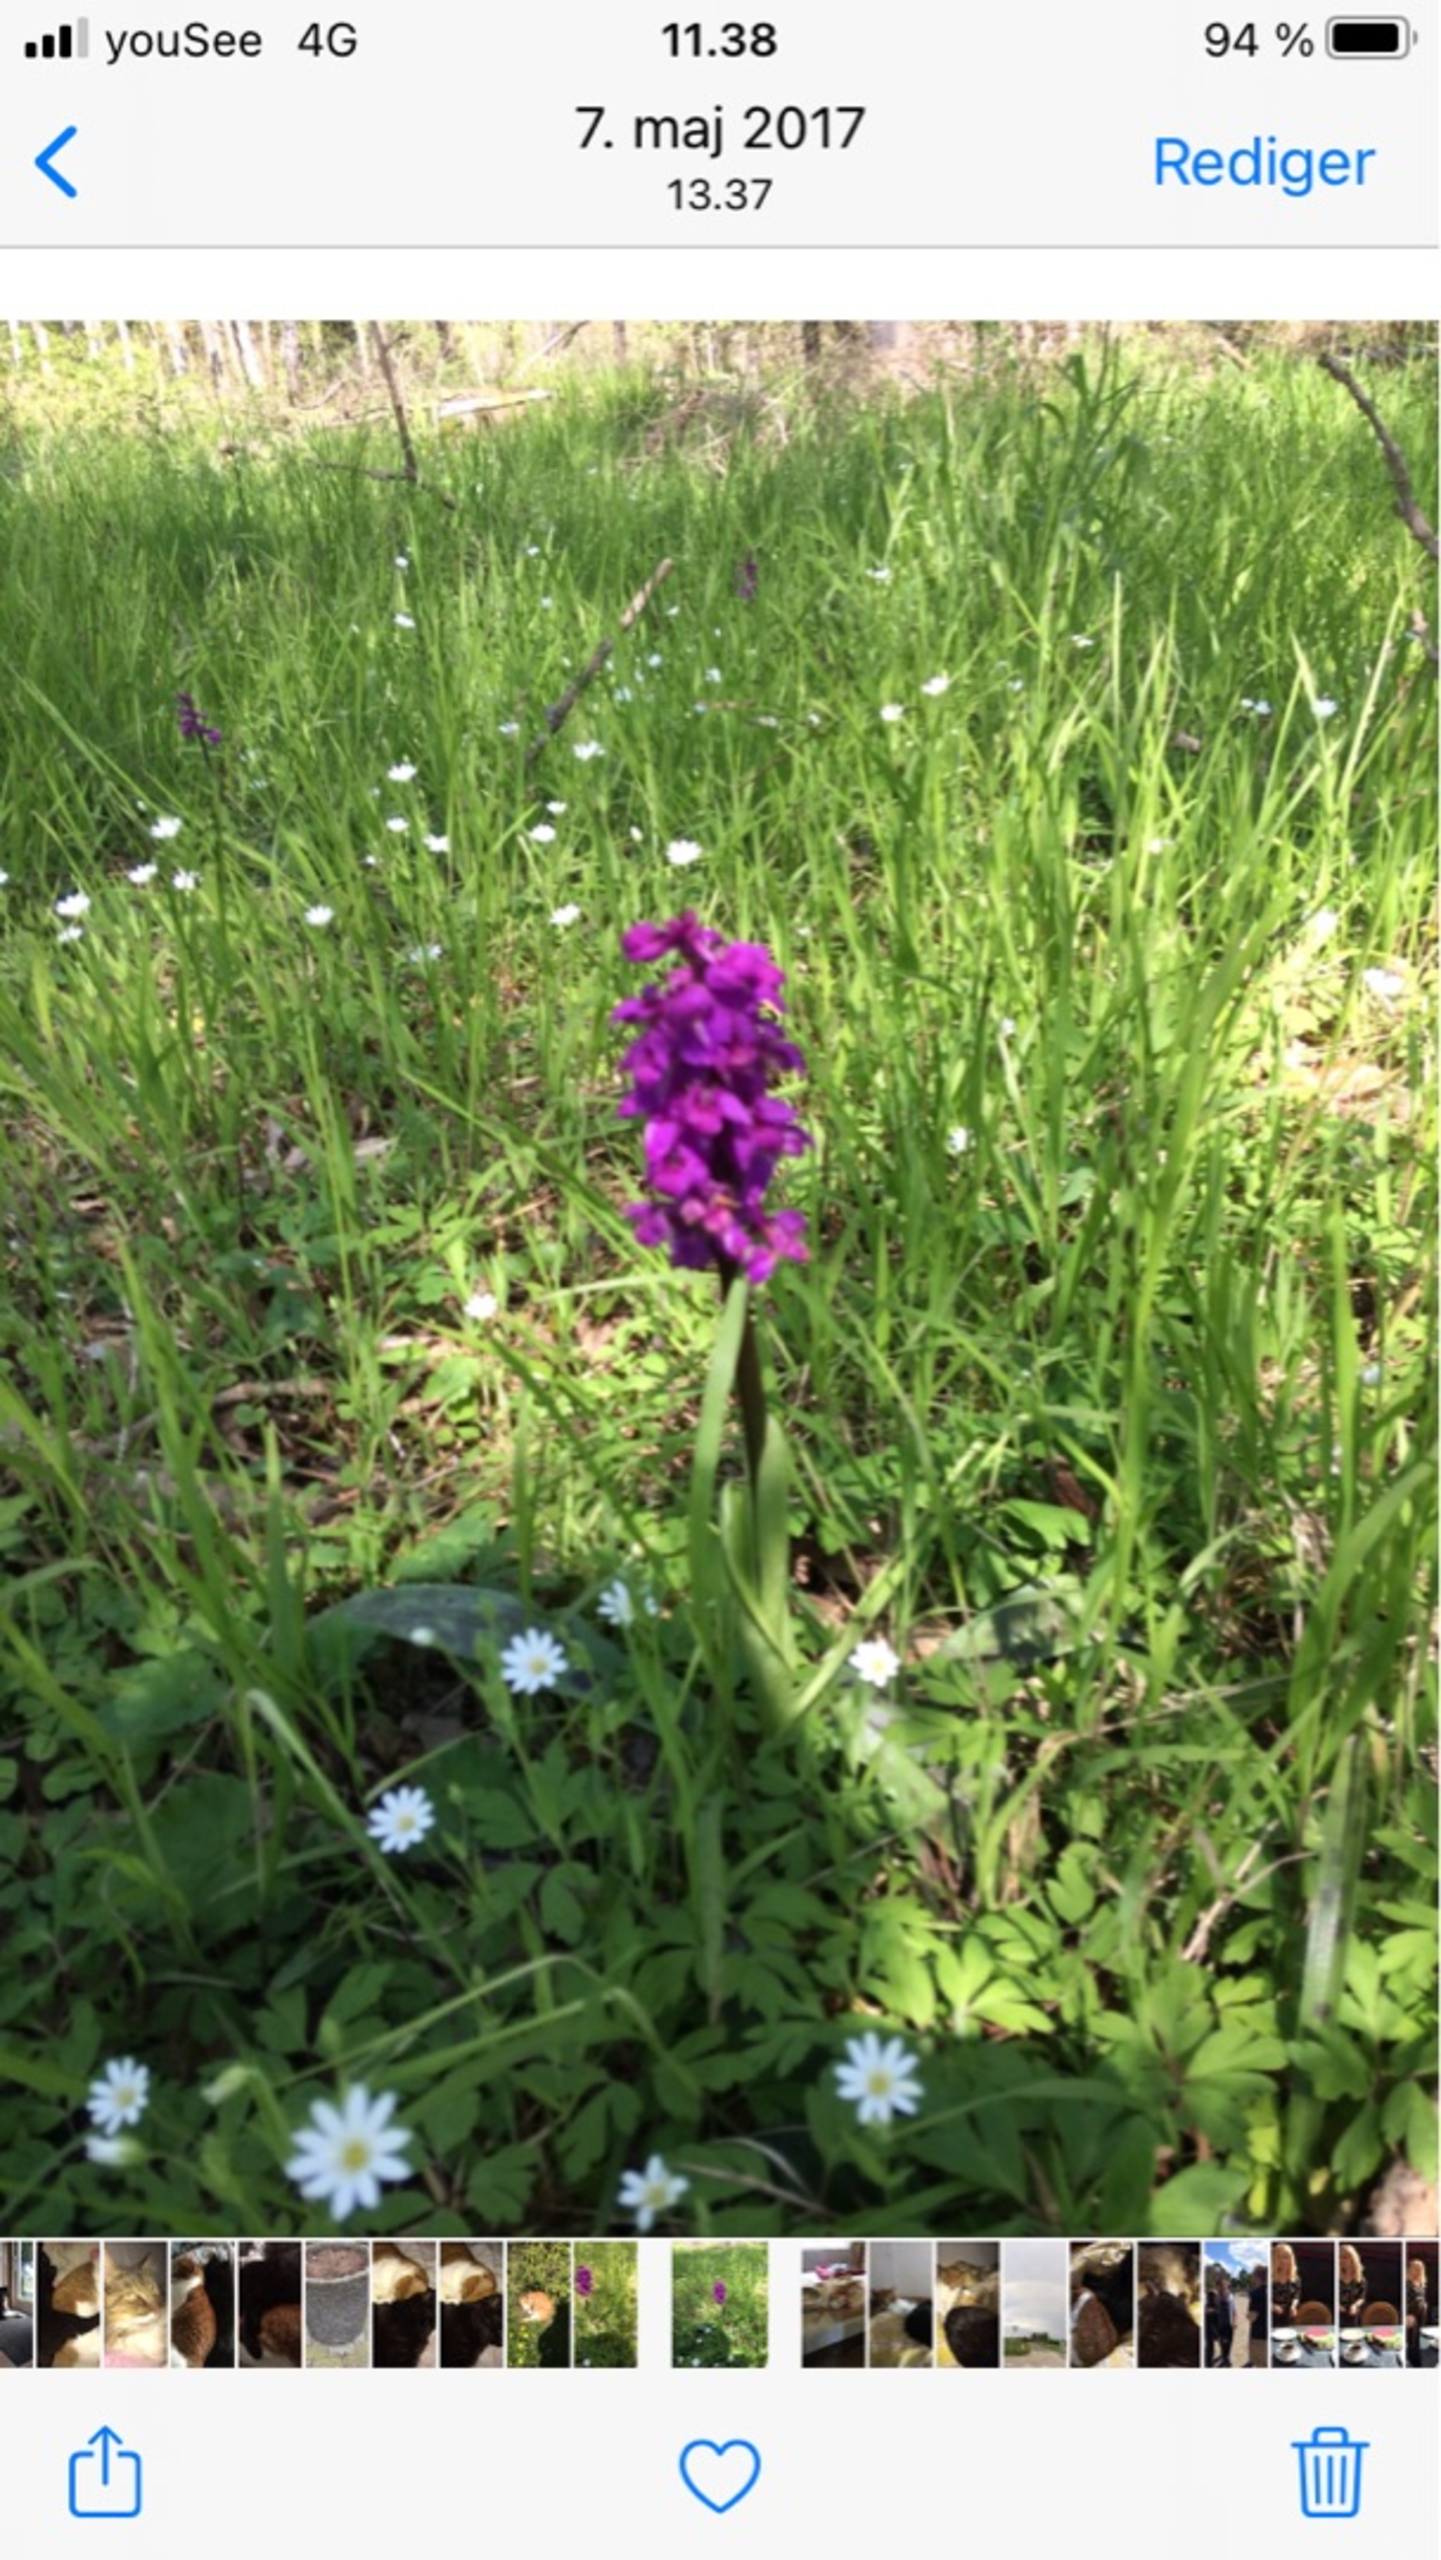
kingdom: Plantae
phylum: Tracheophyta
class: Liliopsida
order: Asparagales
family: Orchidaceae
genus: Orchis
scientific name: Orchis mascula
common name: Tyndakset gøgeurt
